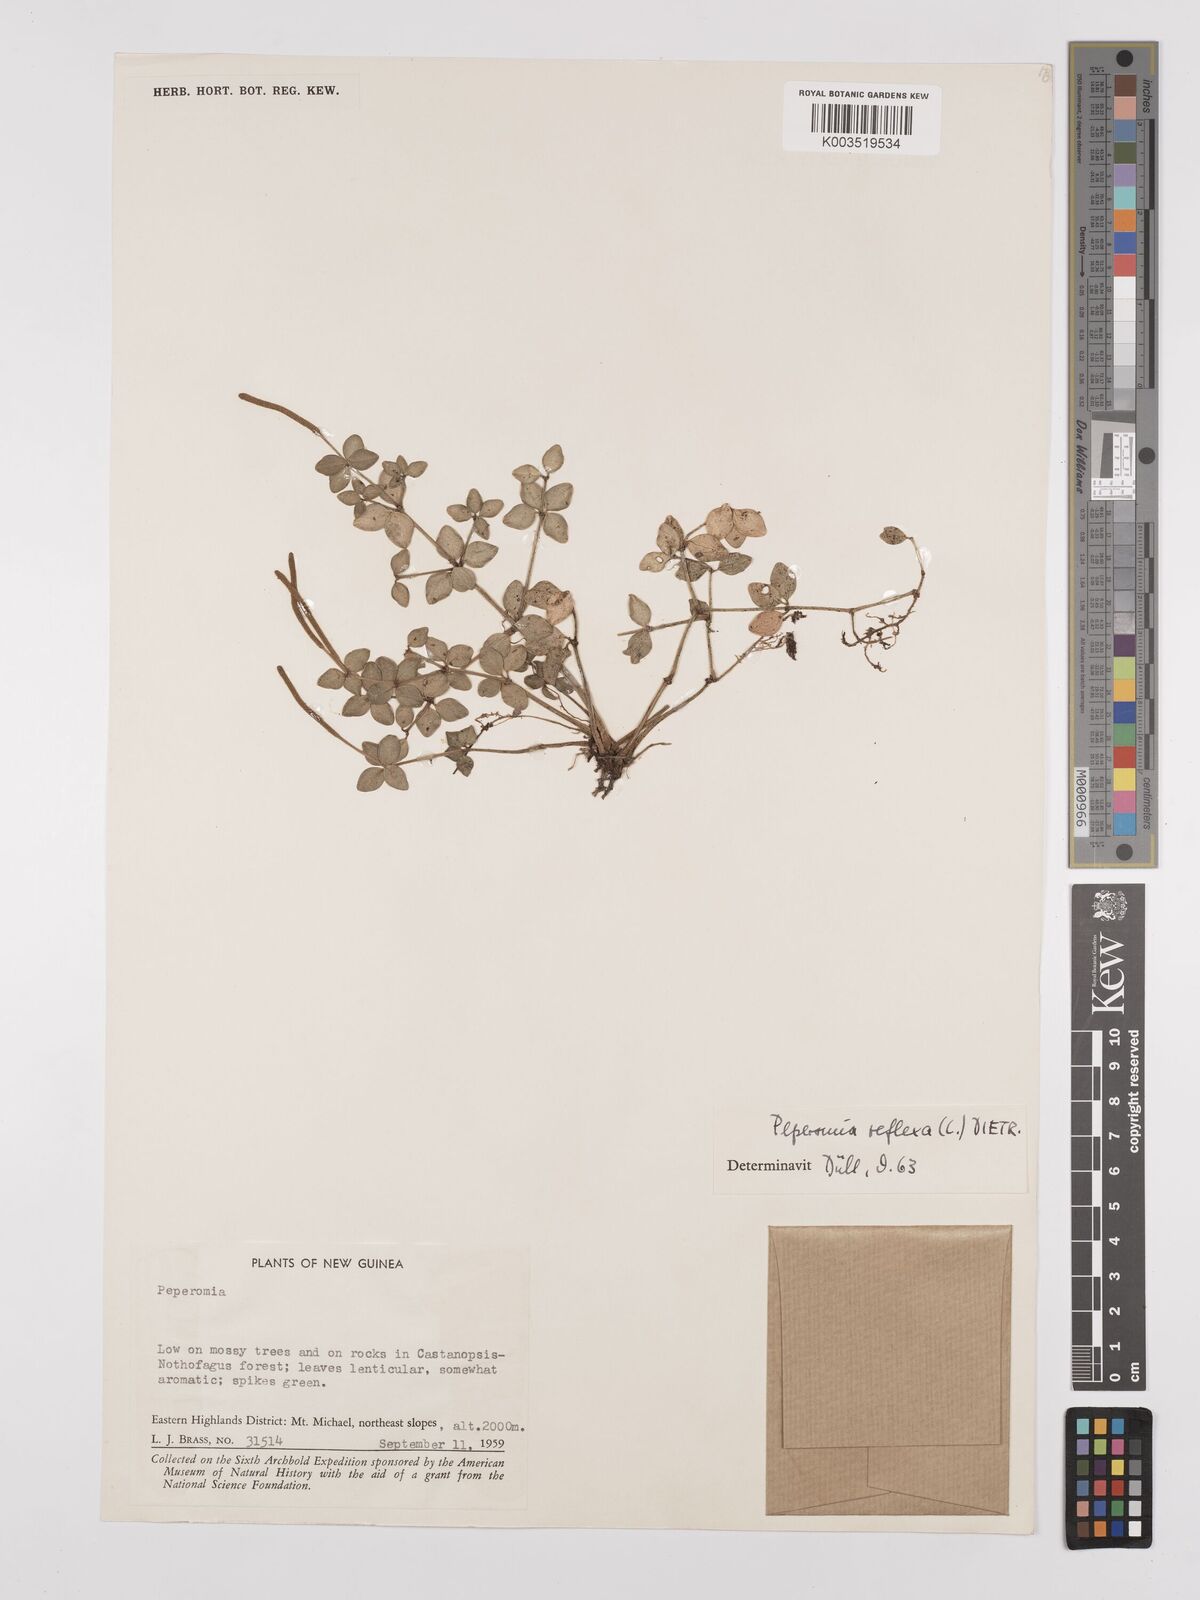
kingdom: Plantae
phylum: Tracheophyta
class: Magnoliopsida
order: Piperales
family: Piperaceae
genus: Peperomia
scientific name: Peperomia tetraphylla
